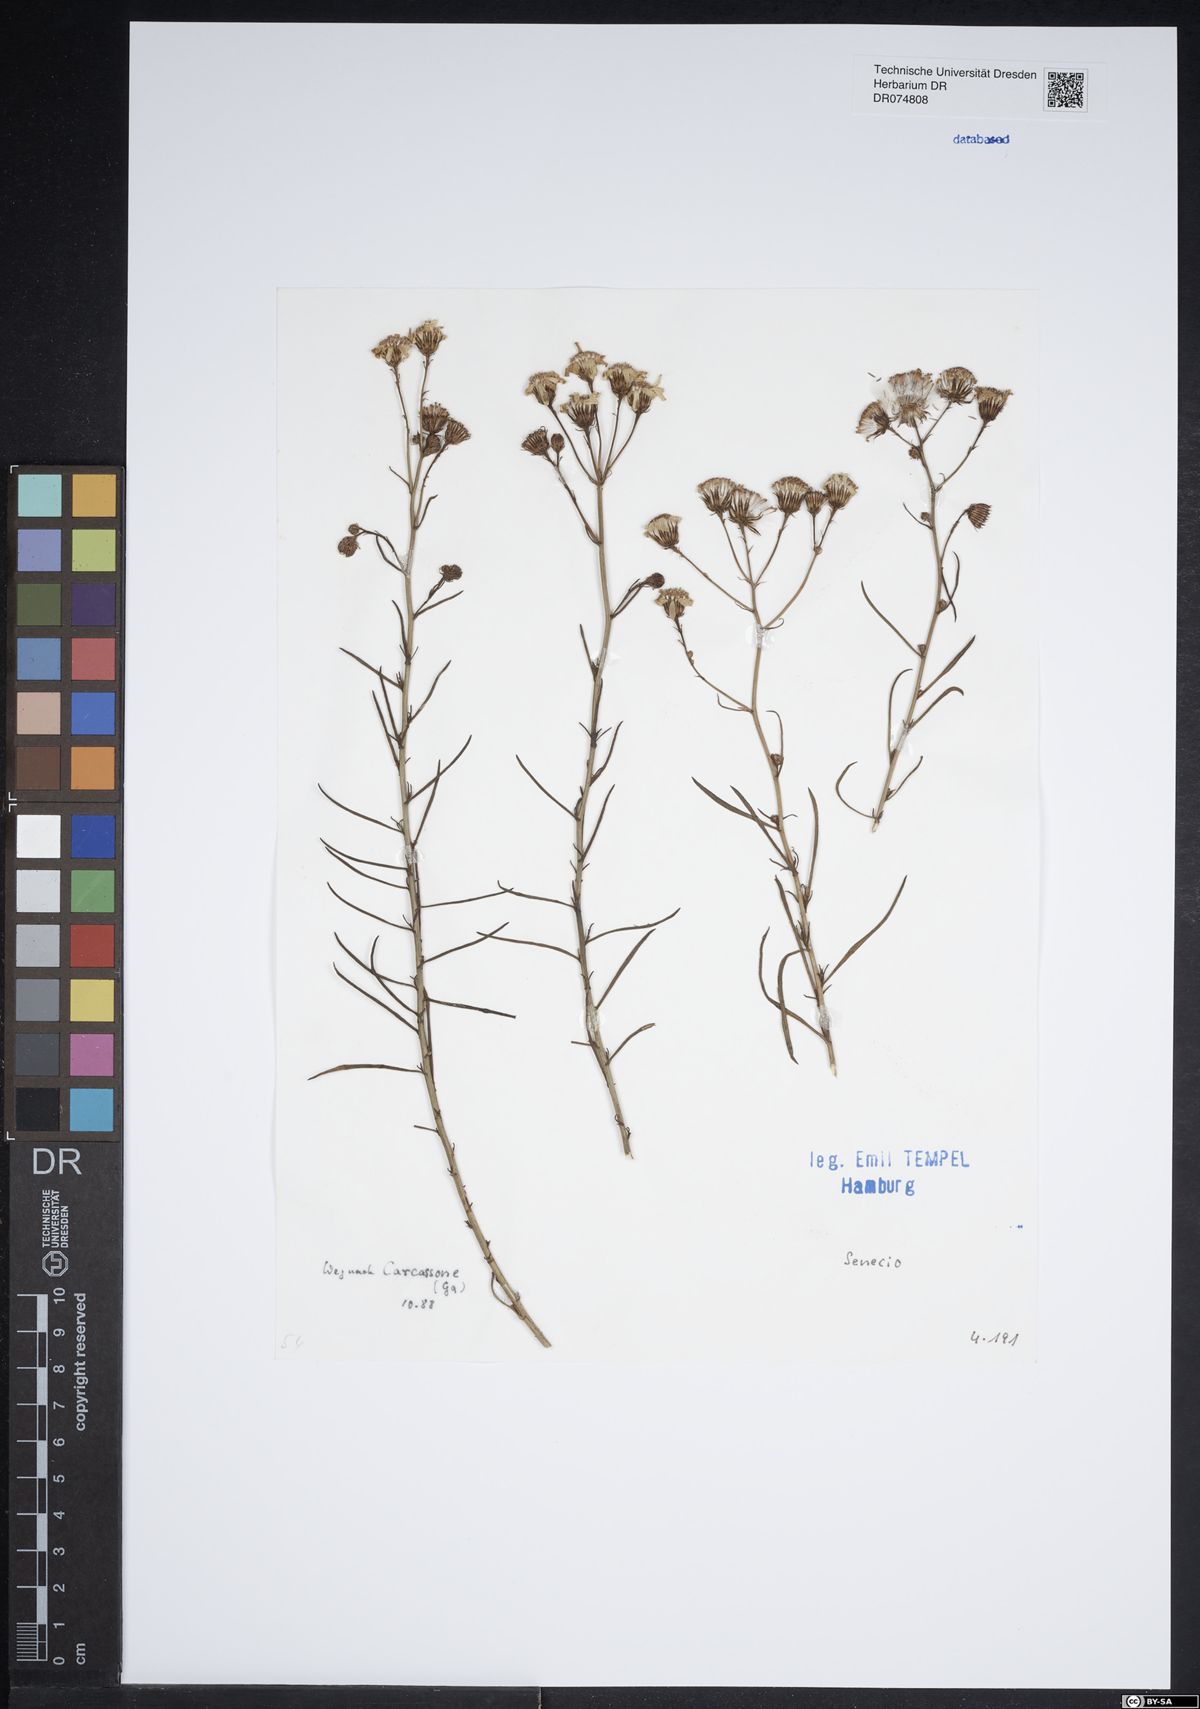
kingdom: Plantae
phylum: Tracheophyta
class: Magnoliopsida
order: Asterales
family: Asteraceae
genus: Senecio
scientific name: Senecio
